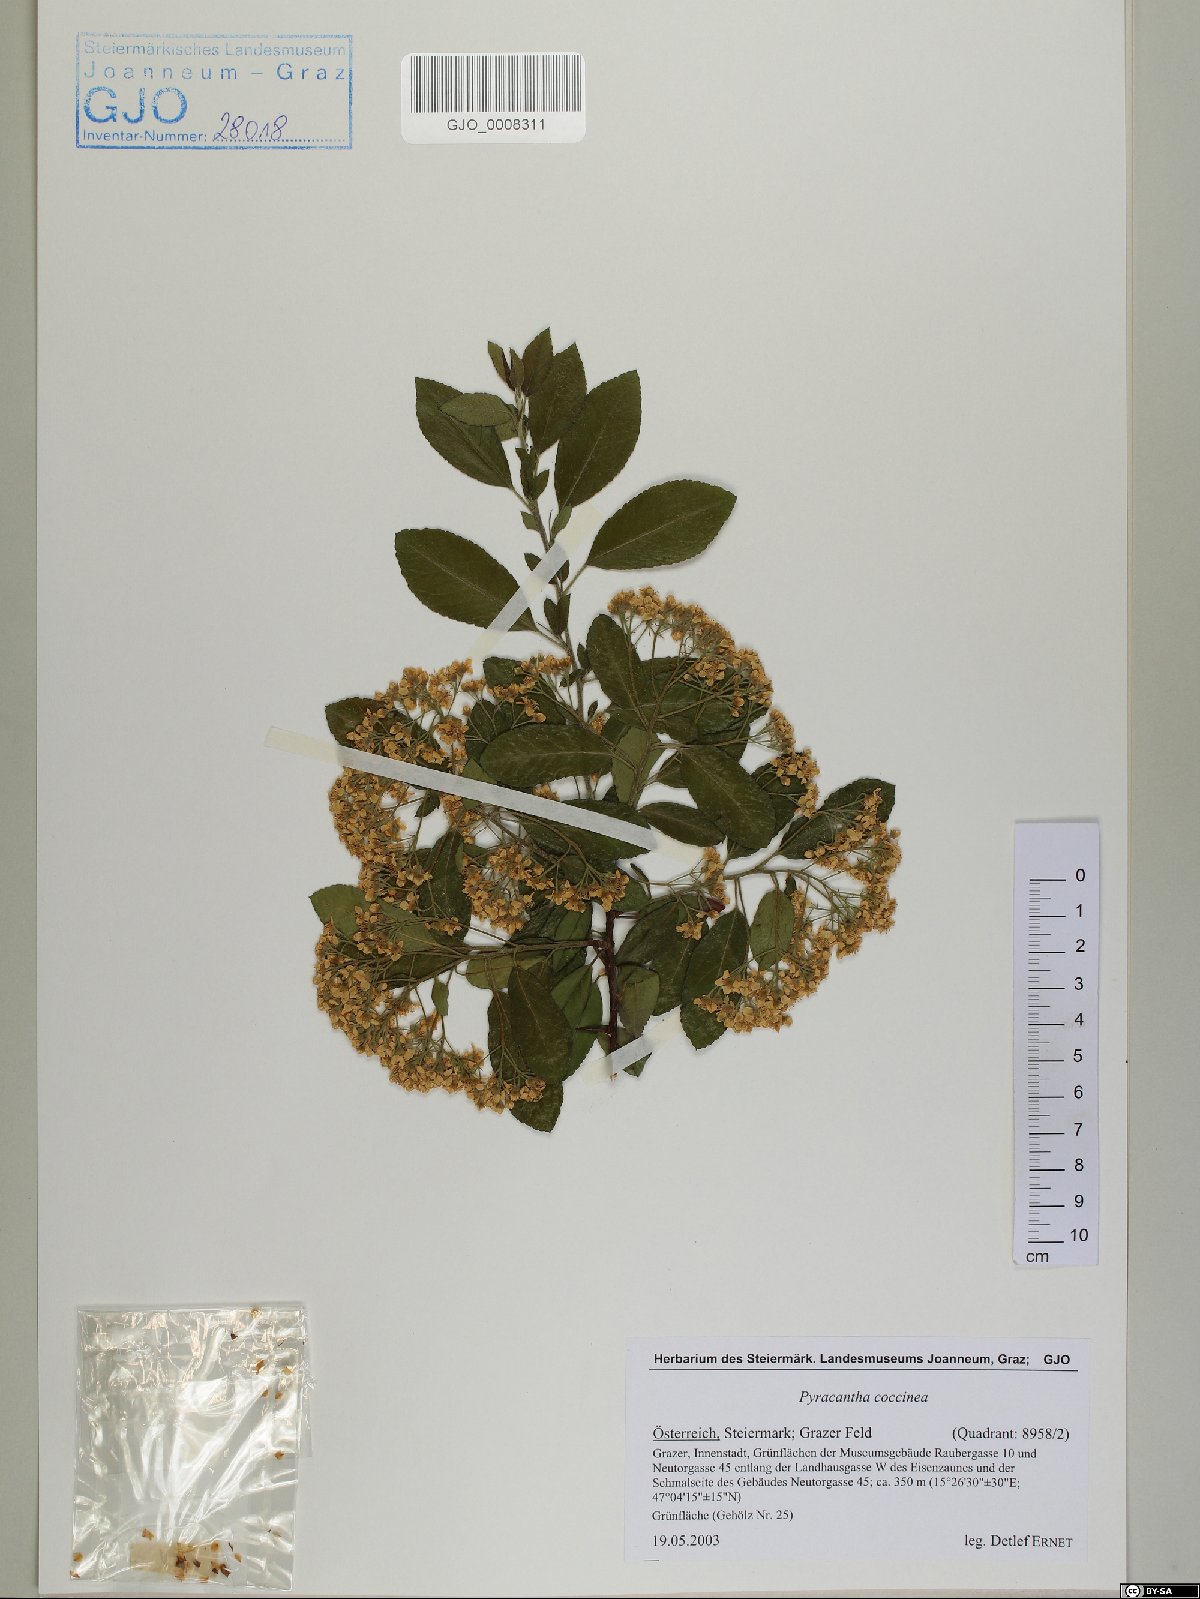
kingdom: Plantae
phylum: Tracheophyta
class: Magnoliopsida
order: Rosales
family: Rosaceae
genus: Pyracantha
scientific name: Pyracantha coccinea
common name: Firethorn
